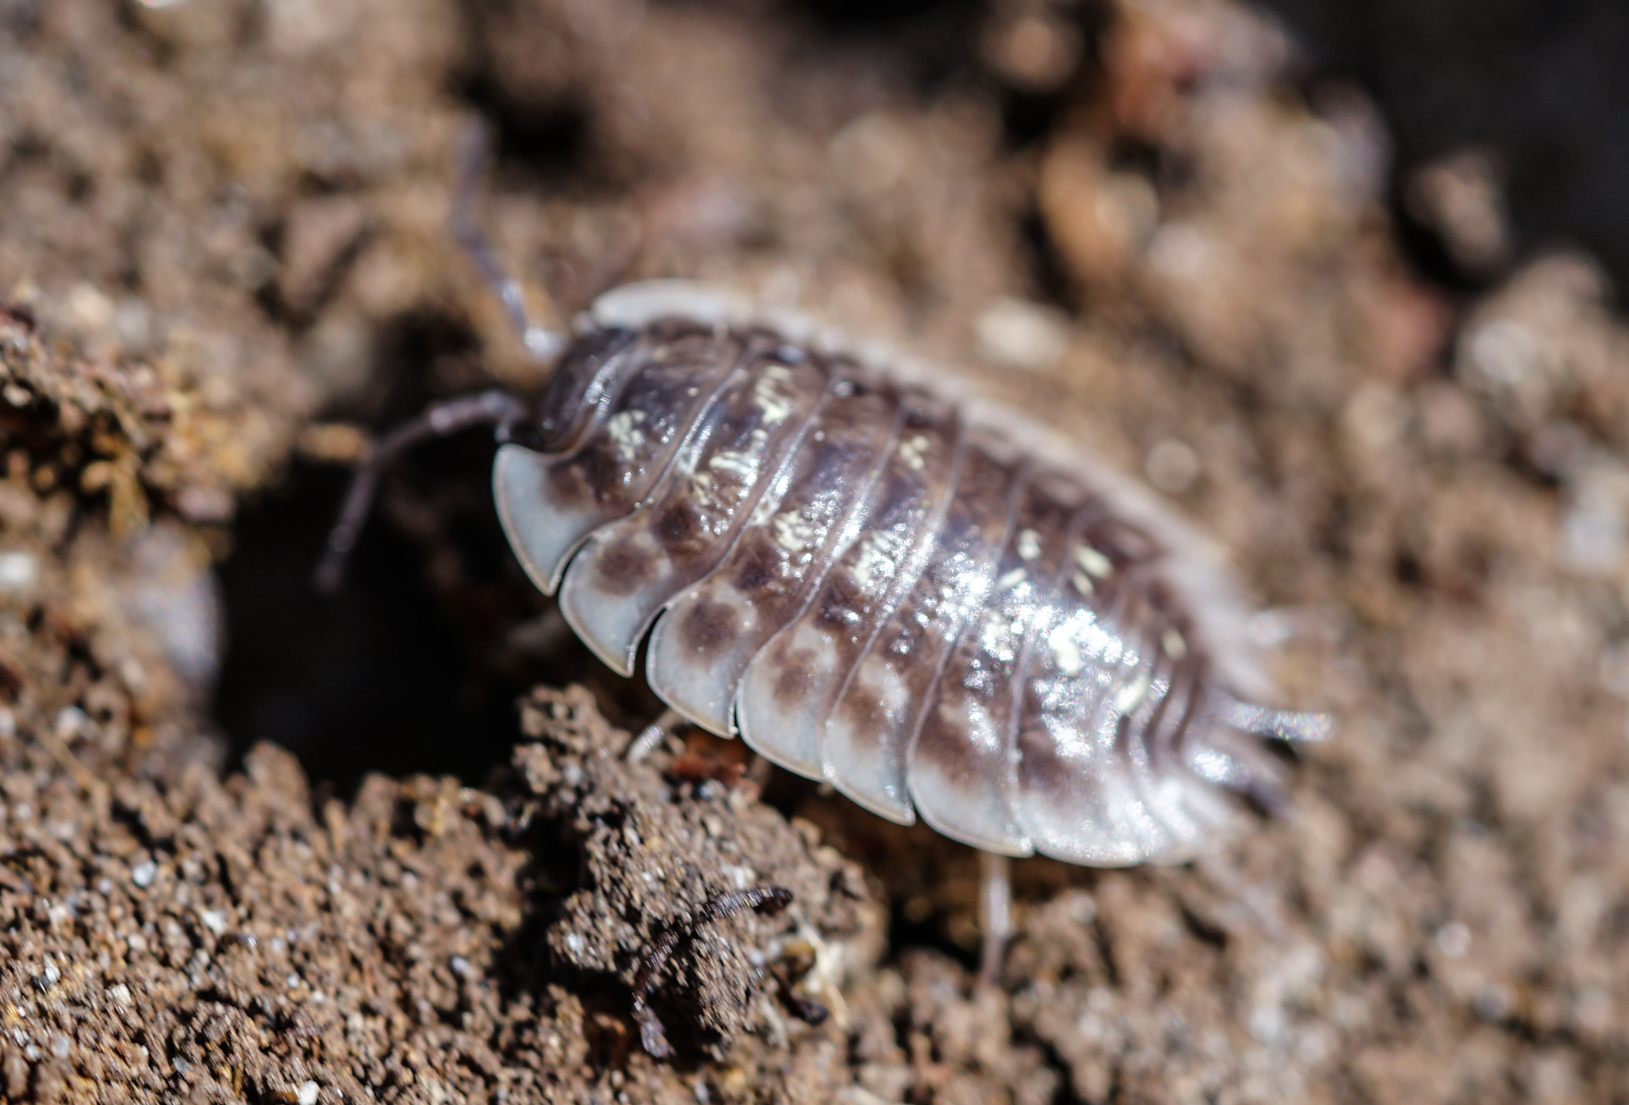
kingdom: Animalia
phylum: Arthropoda
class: Malacostraca
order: Isopoda
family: Oniscidae
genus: Oniscus
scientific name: Oniscus asellus
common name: Common shiny woodlouse
